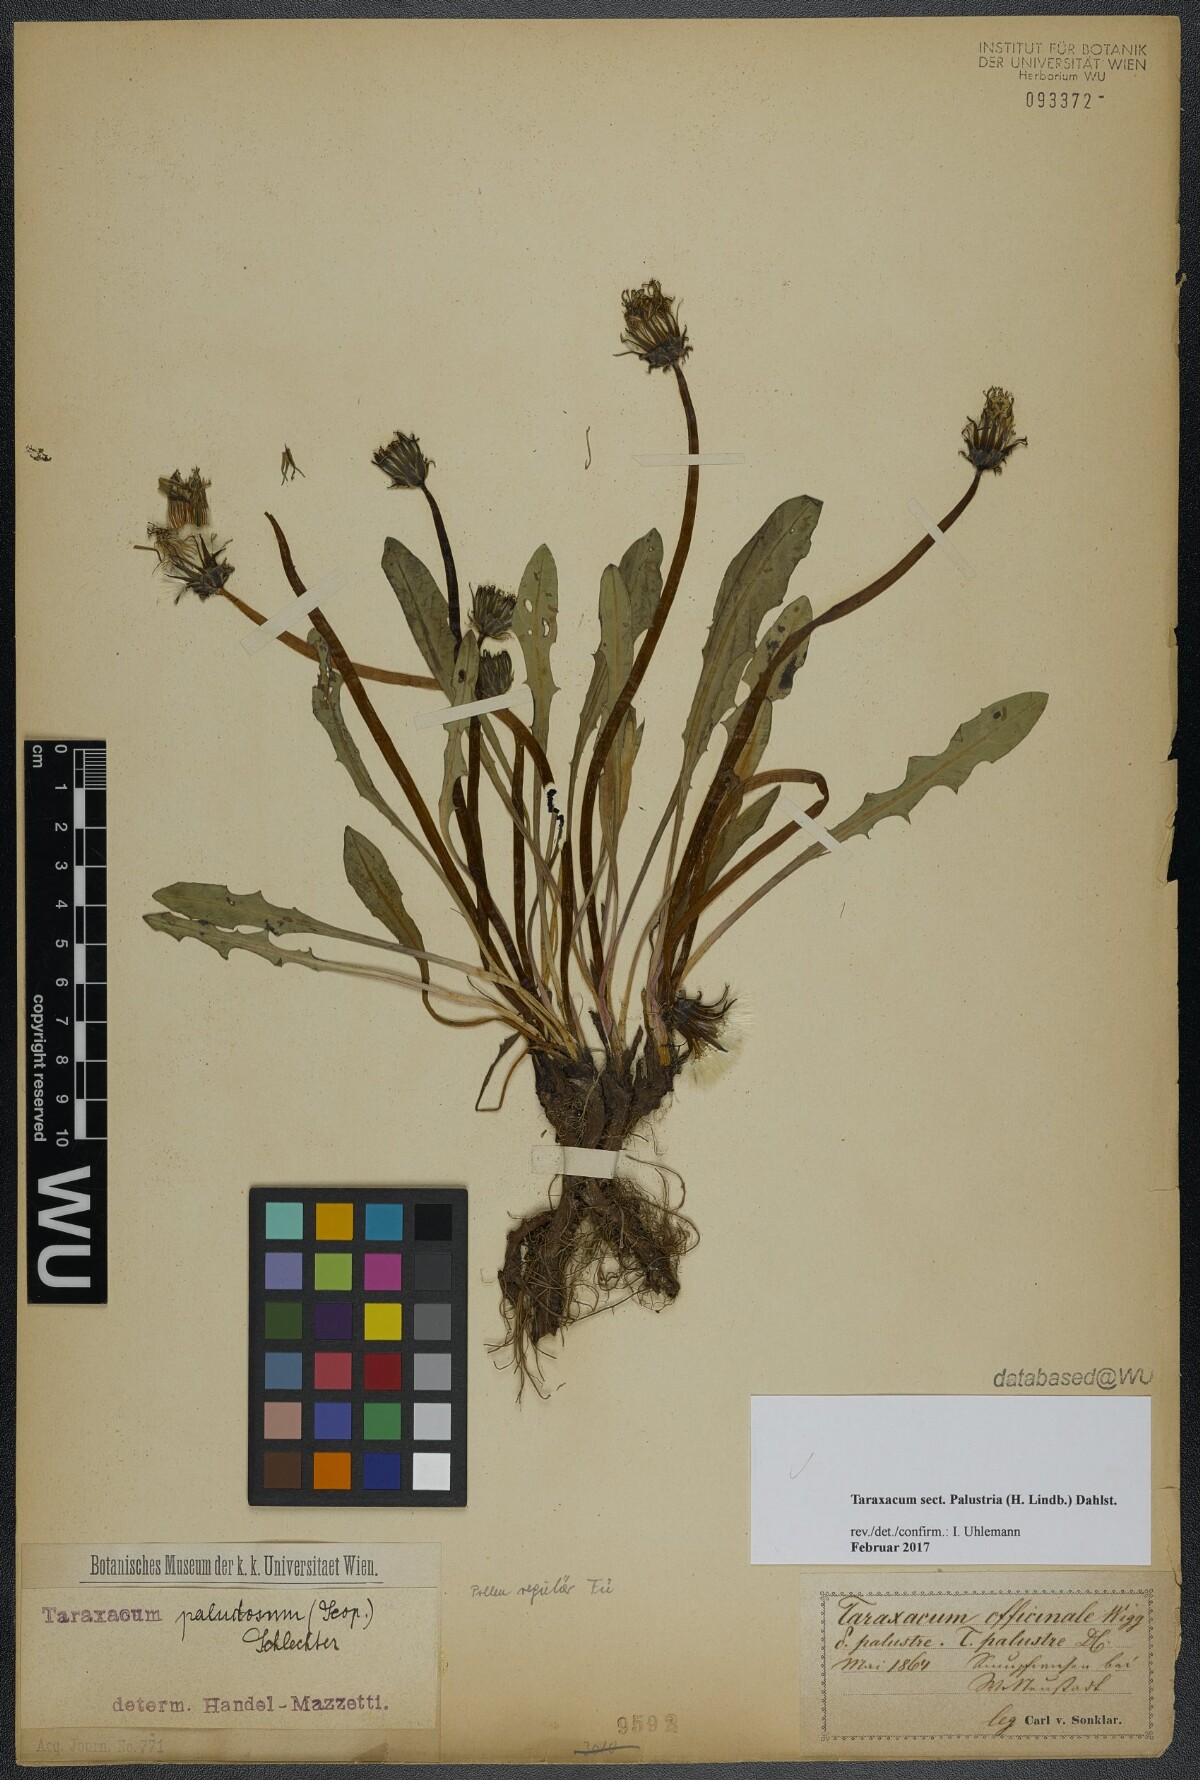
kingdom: Plantae
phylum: Tracheophyta
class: Magnoliopsida
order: Asterales
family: Asteraceae
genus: Taraxacum
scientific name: Taraxacum
